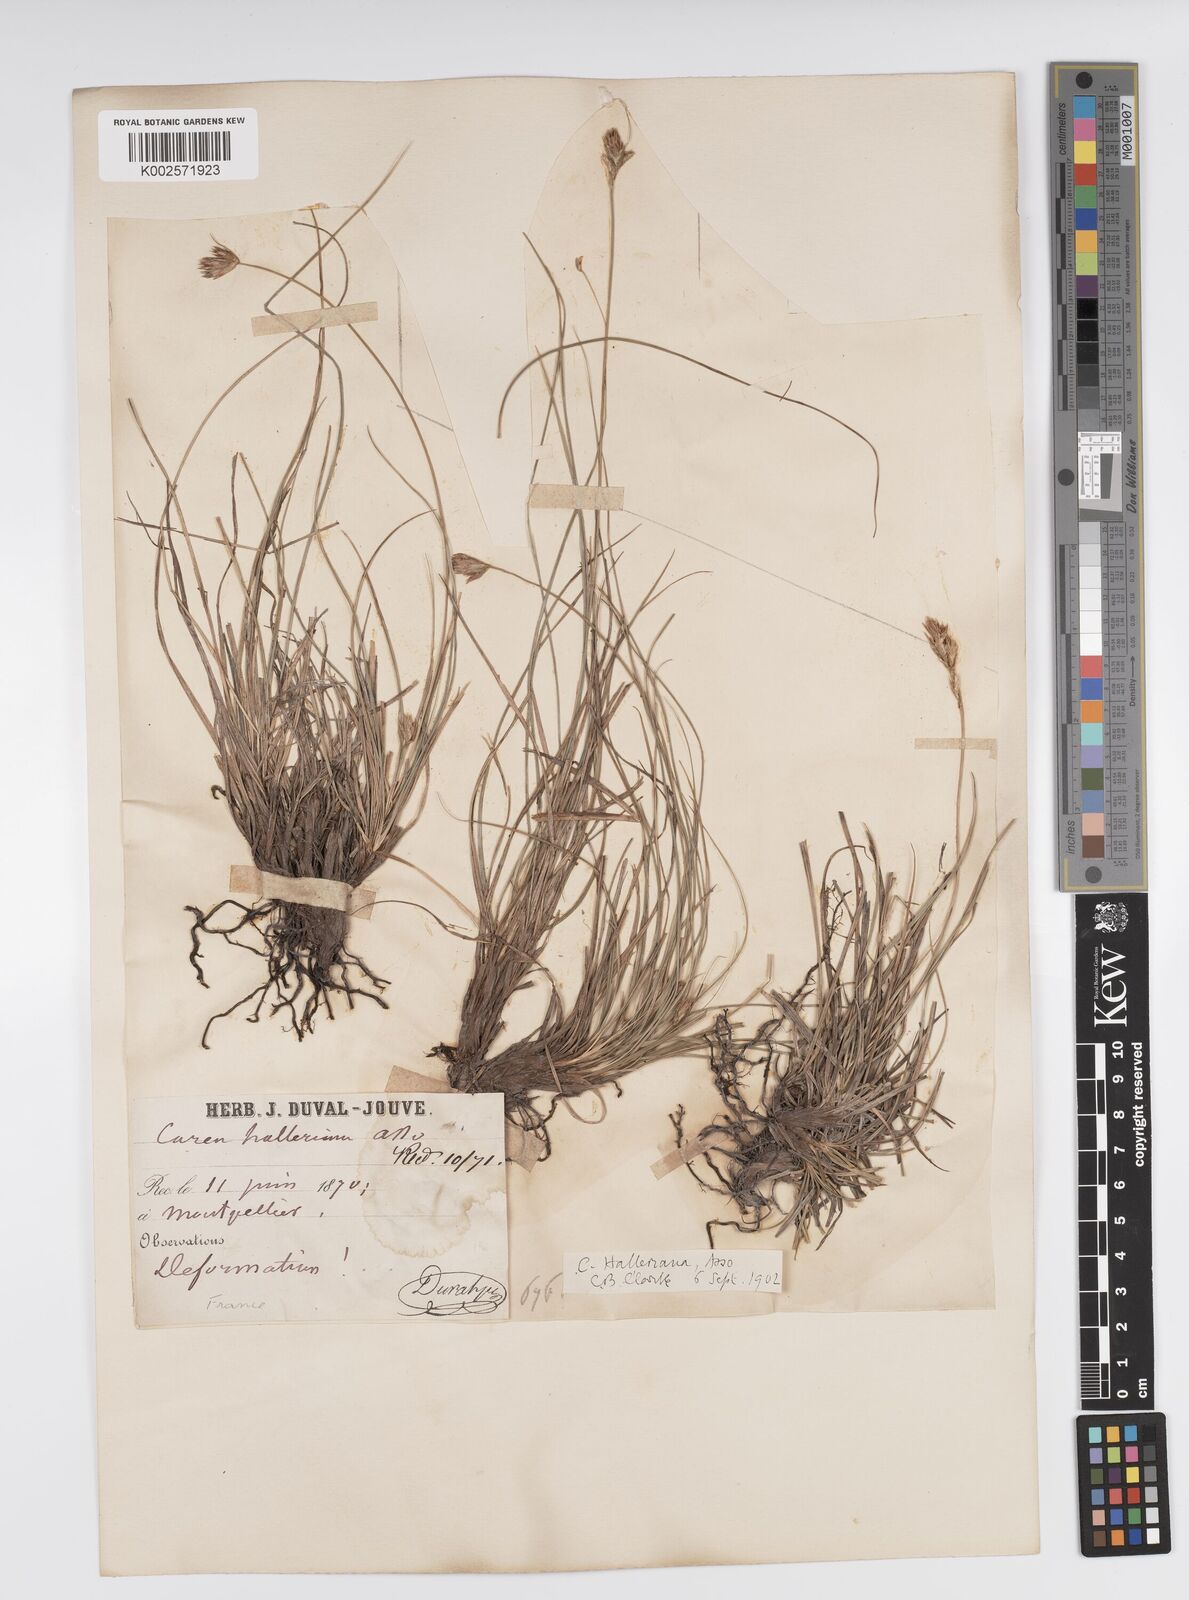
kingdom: Plantae
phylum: Tracheophyta
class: Liliopsida
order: Poales
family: Cyperaceae
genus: Carex
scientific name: Carex halleriana
